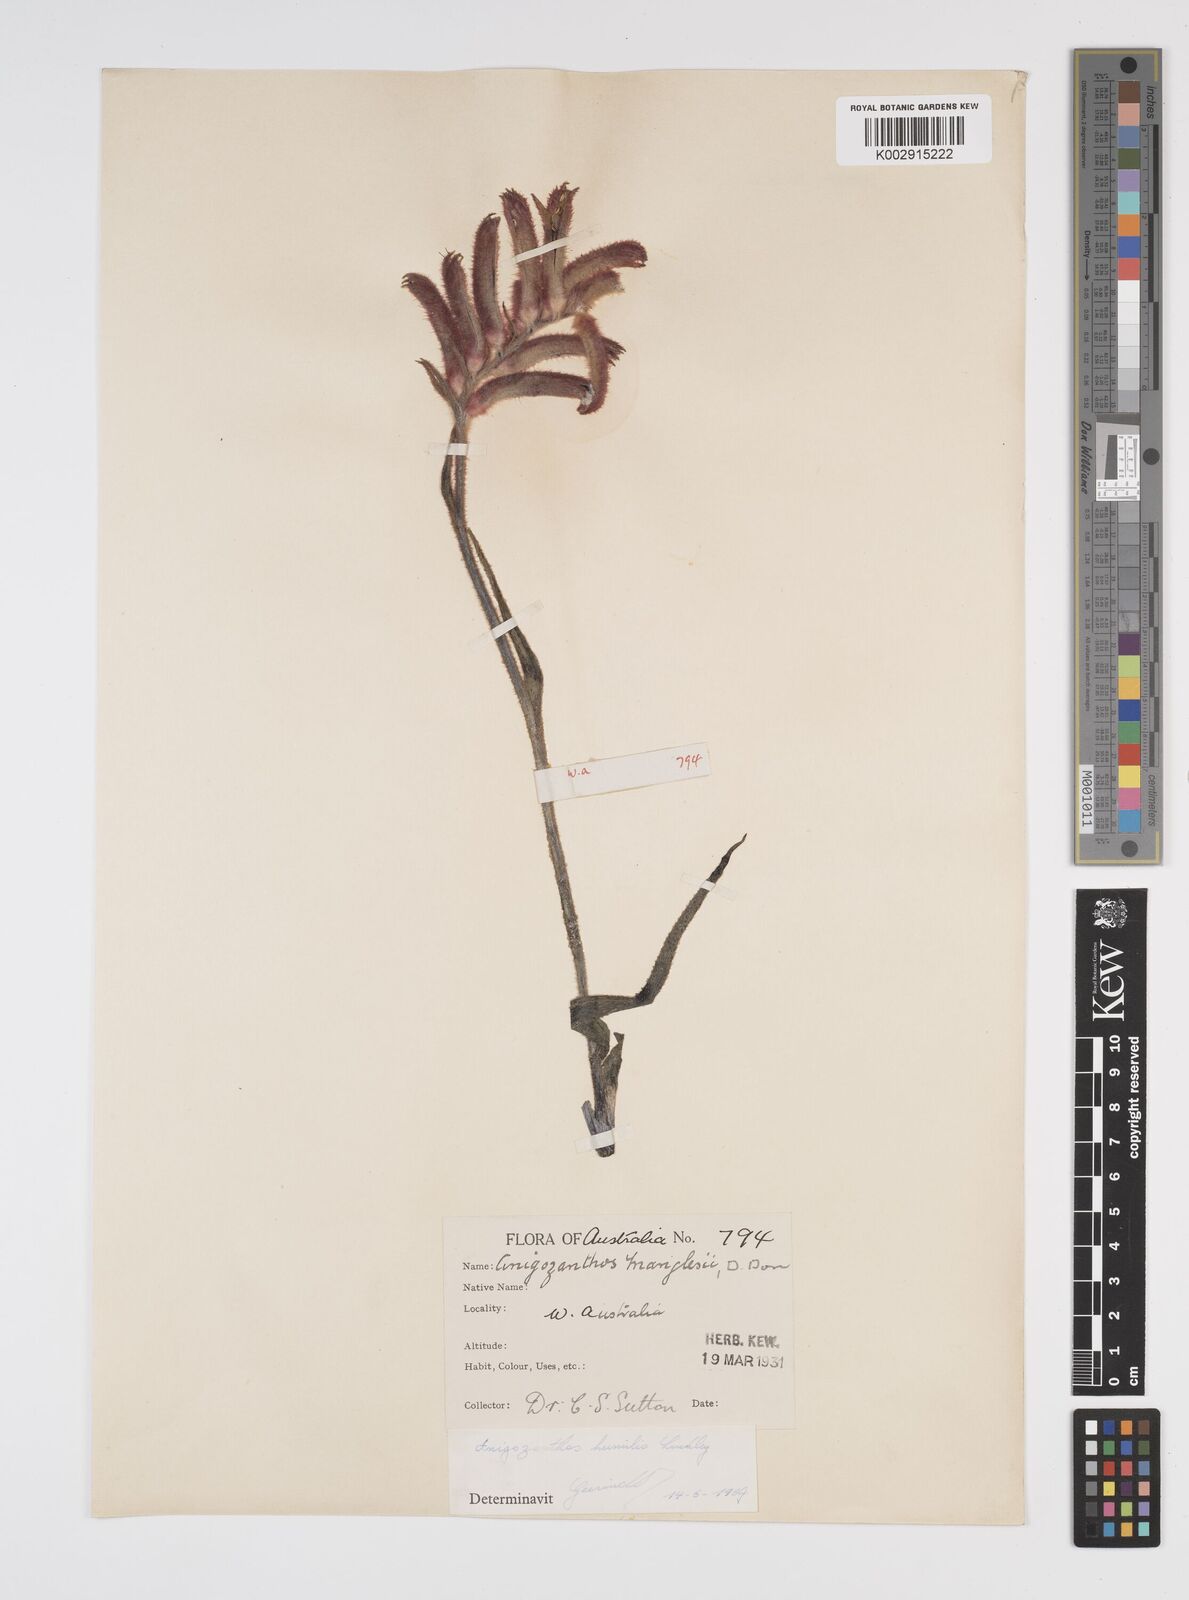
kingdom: Plantae
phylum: Tracheophyta
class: Liliopsida
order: Commelinales
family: Haemodoraceae
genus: Anigozanthos
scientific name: Anigozanthos humilis
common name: Cat's-paw
